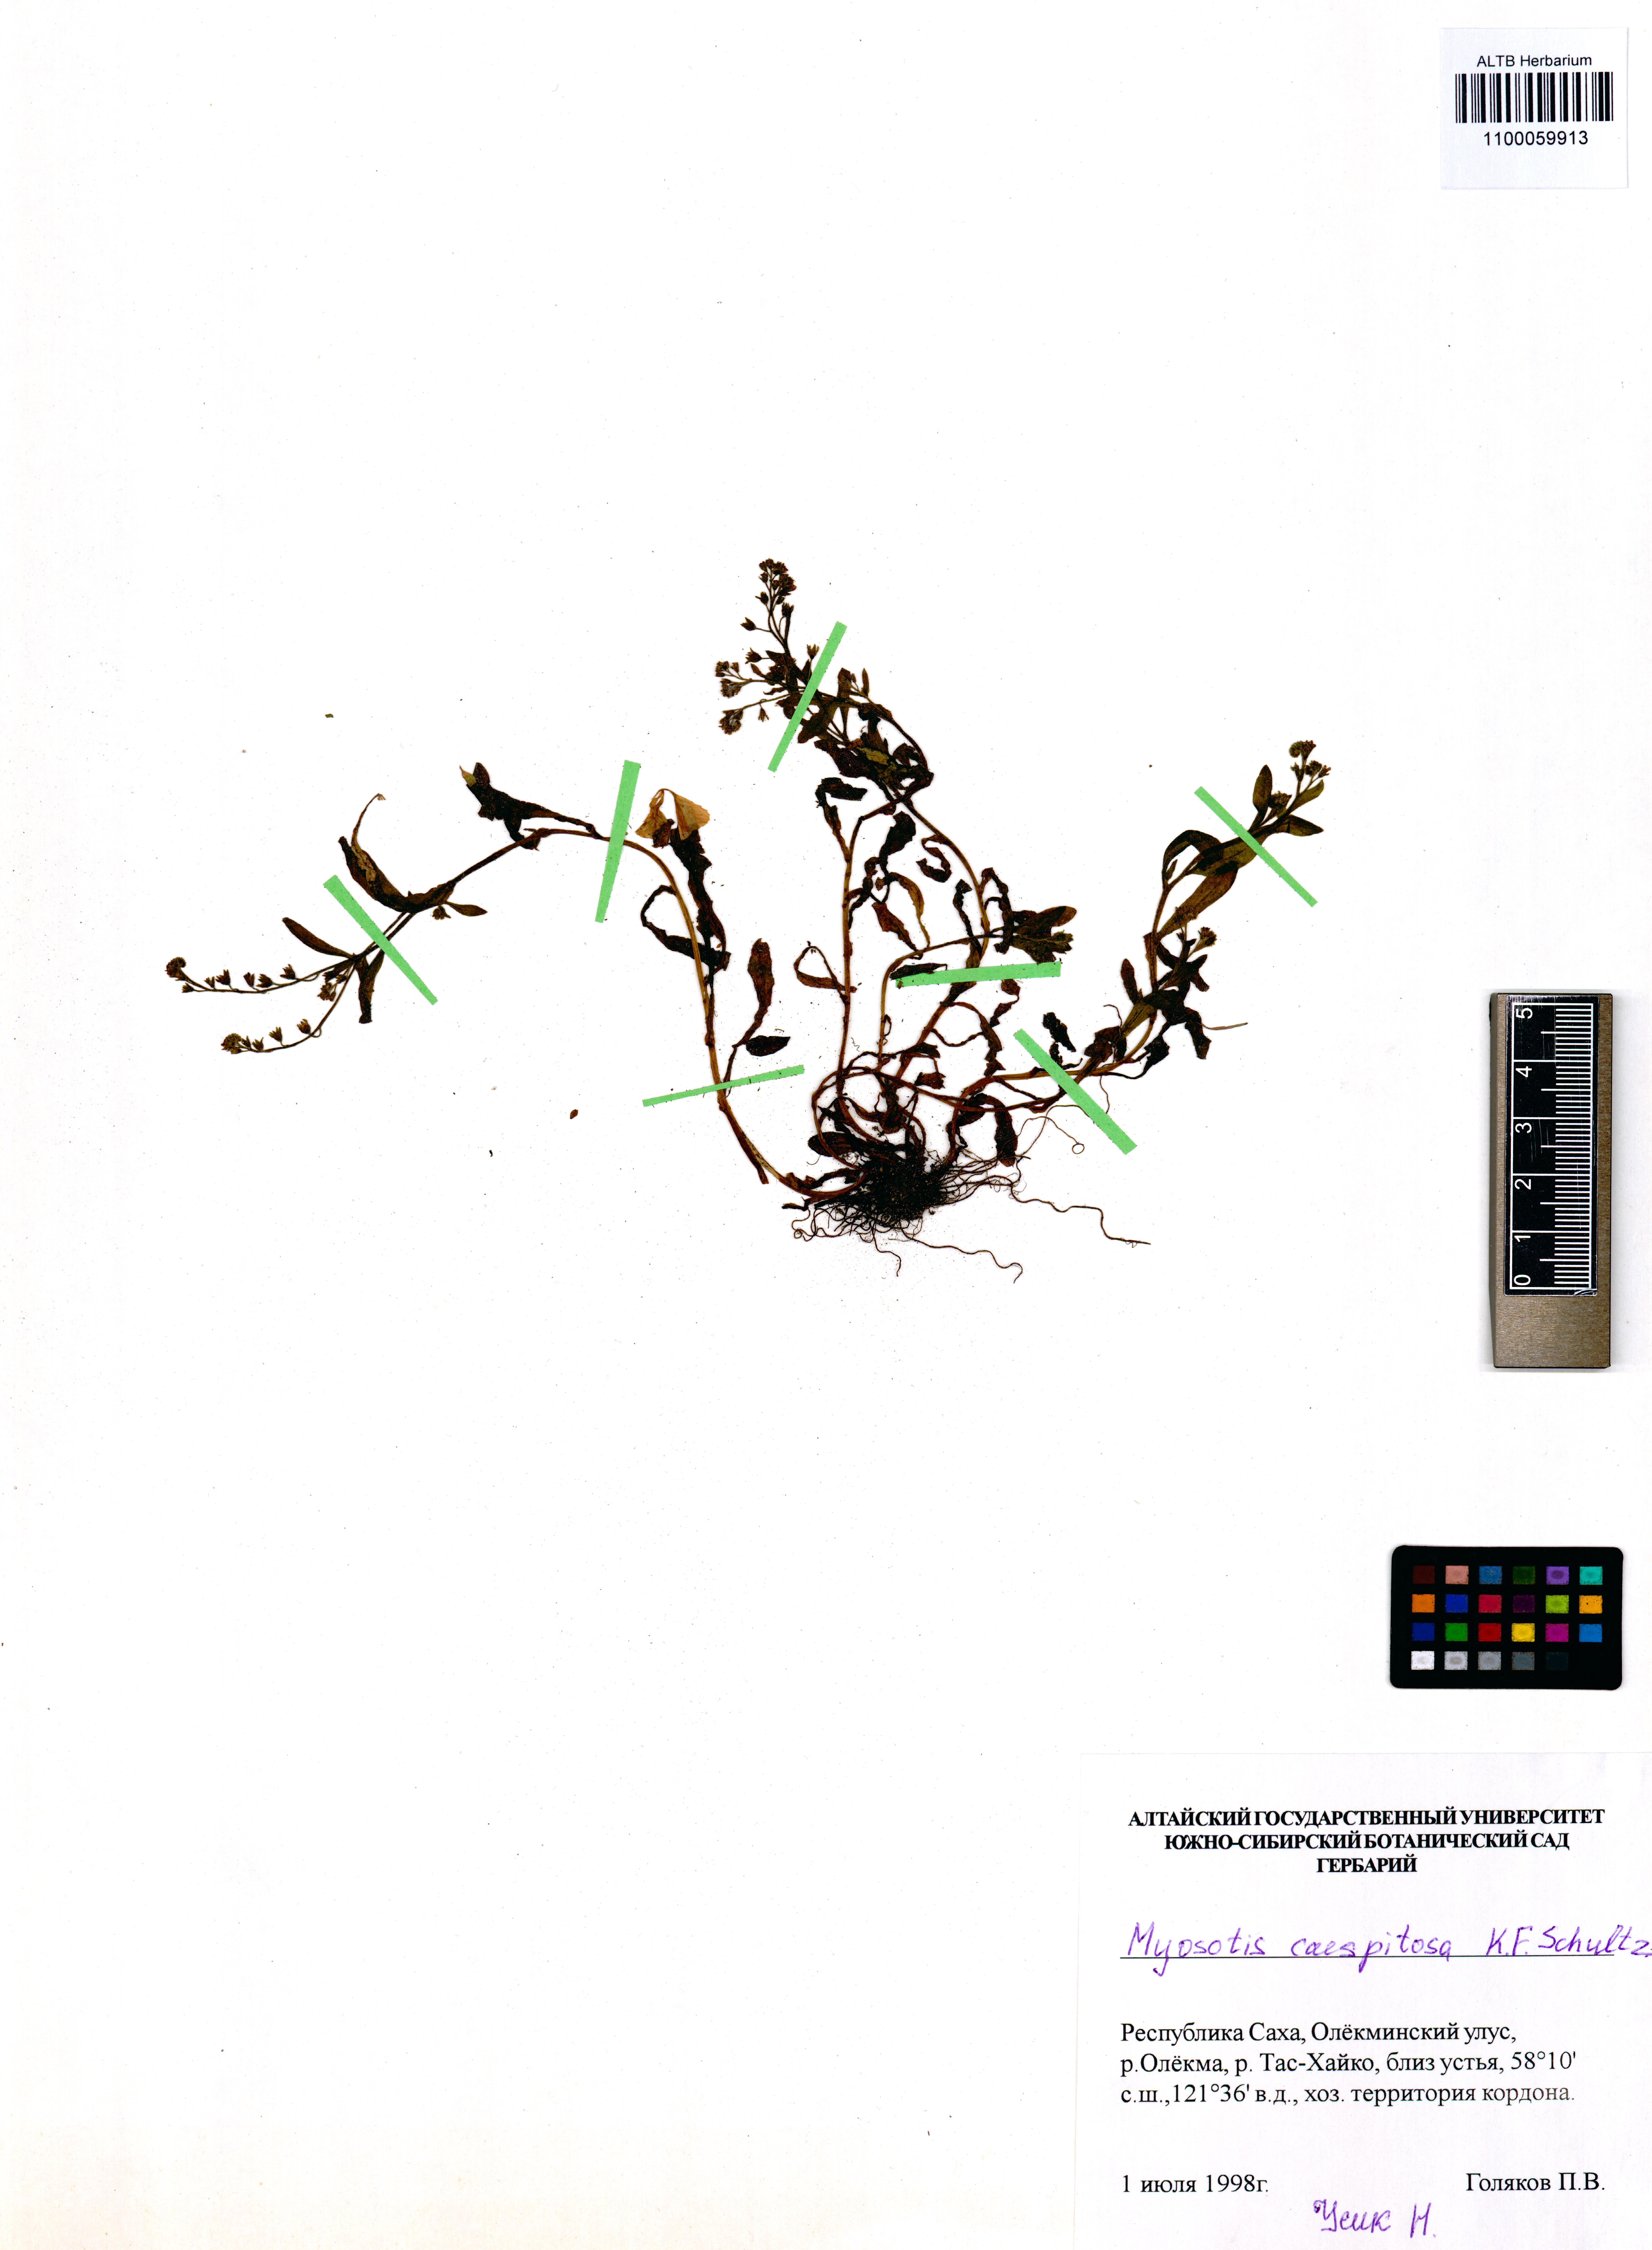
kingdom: Plantae
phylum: Tracheophyta
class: Magnoliopsida
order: Boraginales
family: Boraginaceae
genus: Myosotis
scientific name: Myosotis laxa
